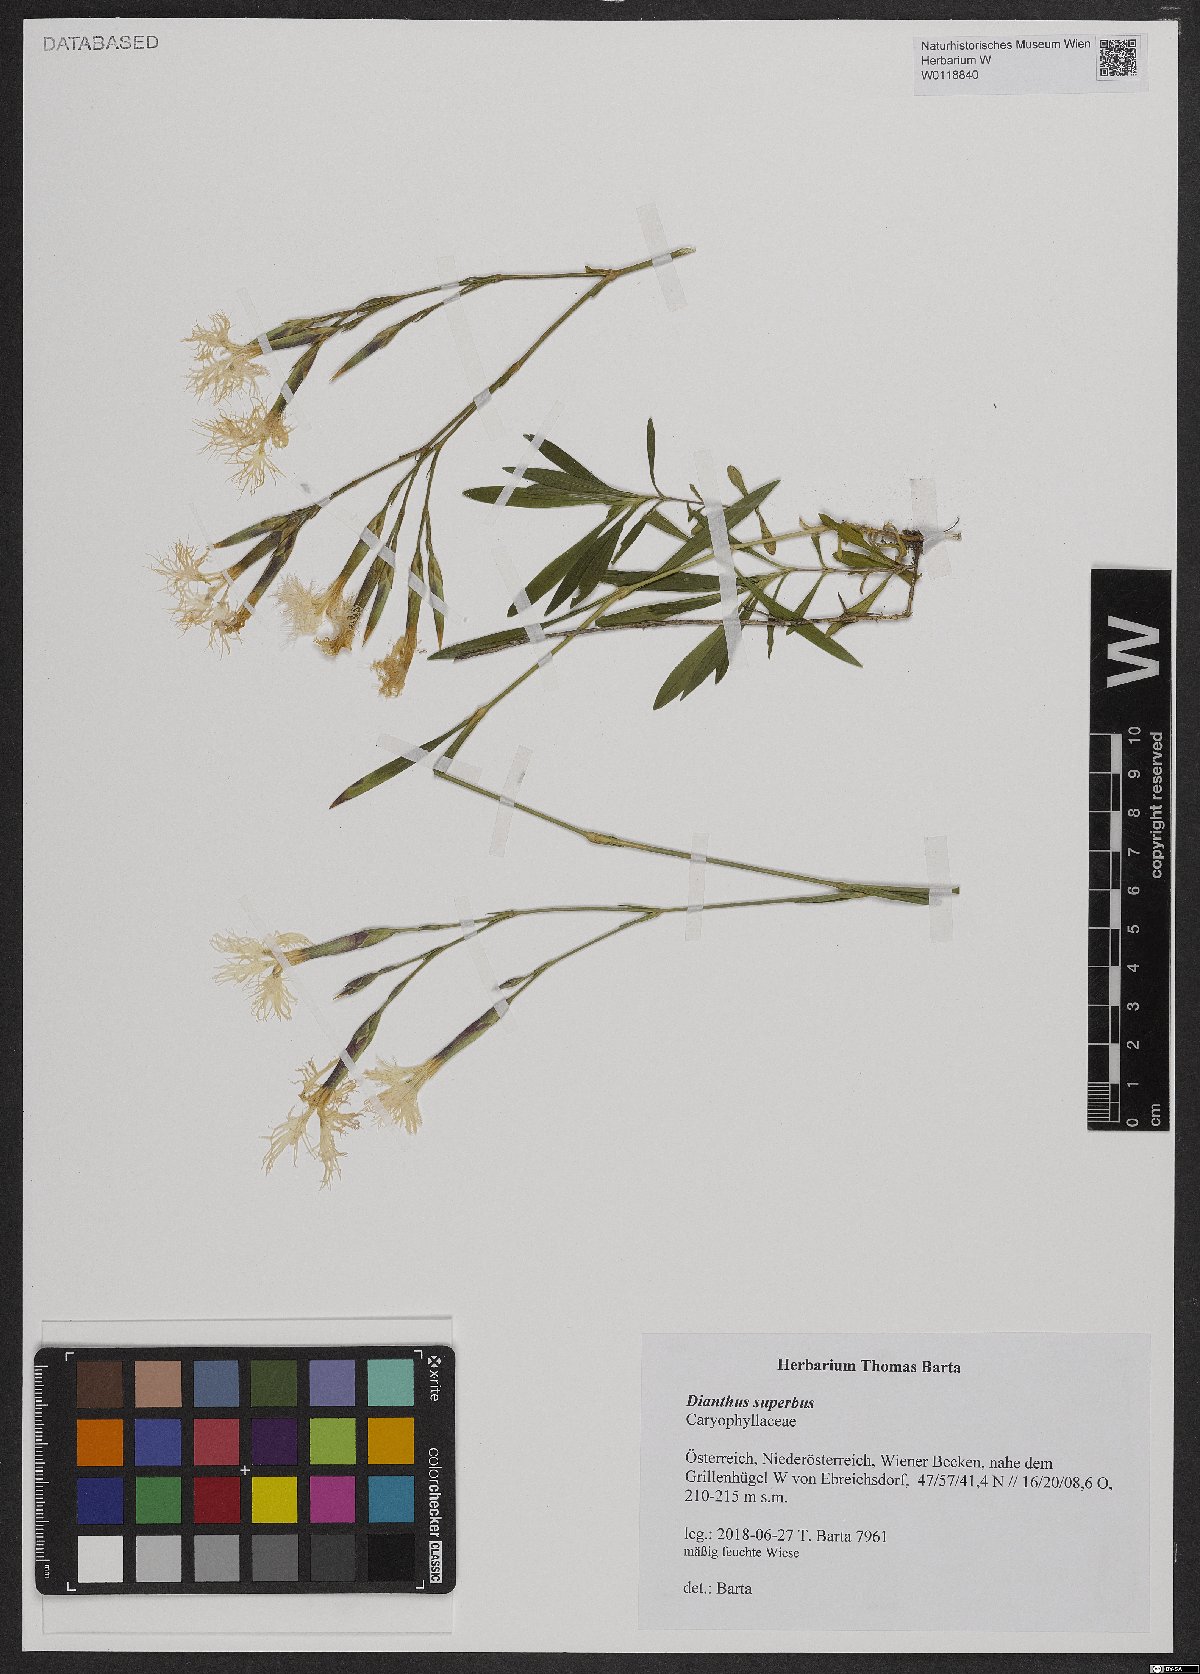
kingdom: Plantae
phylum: Tracheophyta
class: Magnoliopsida
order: Caryophyllales
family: Caryophyllaceae
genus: Dianthus
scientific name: Dianthus superbus
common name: Fringed pink
